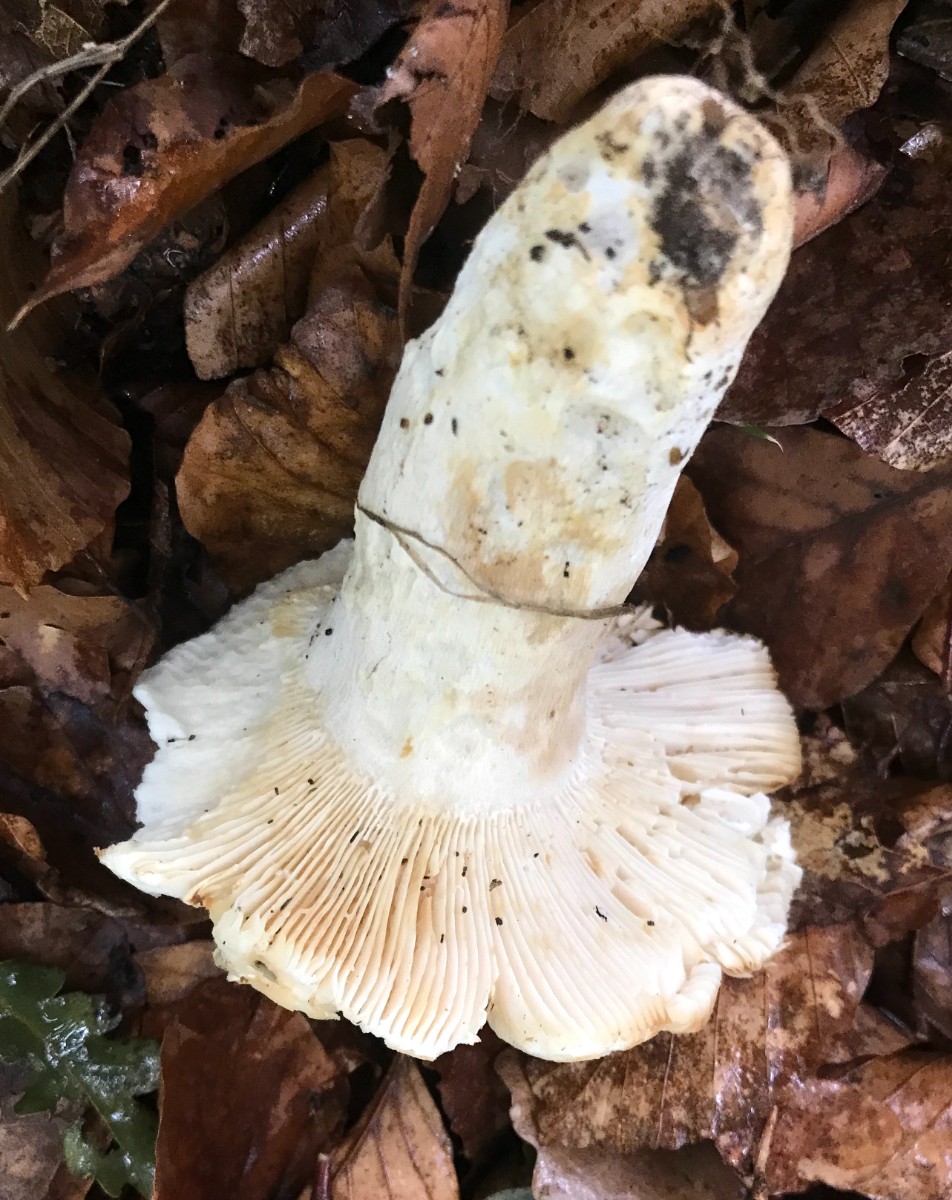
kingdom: Fungi
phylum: Basidiomycota
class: Agaricomycetes
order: Russulales
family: Russulaceae
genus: Russula
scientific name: Russula virescens
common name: spanskgrøn skørhat
